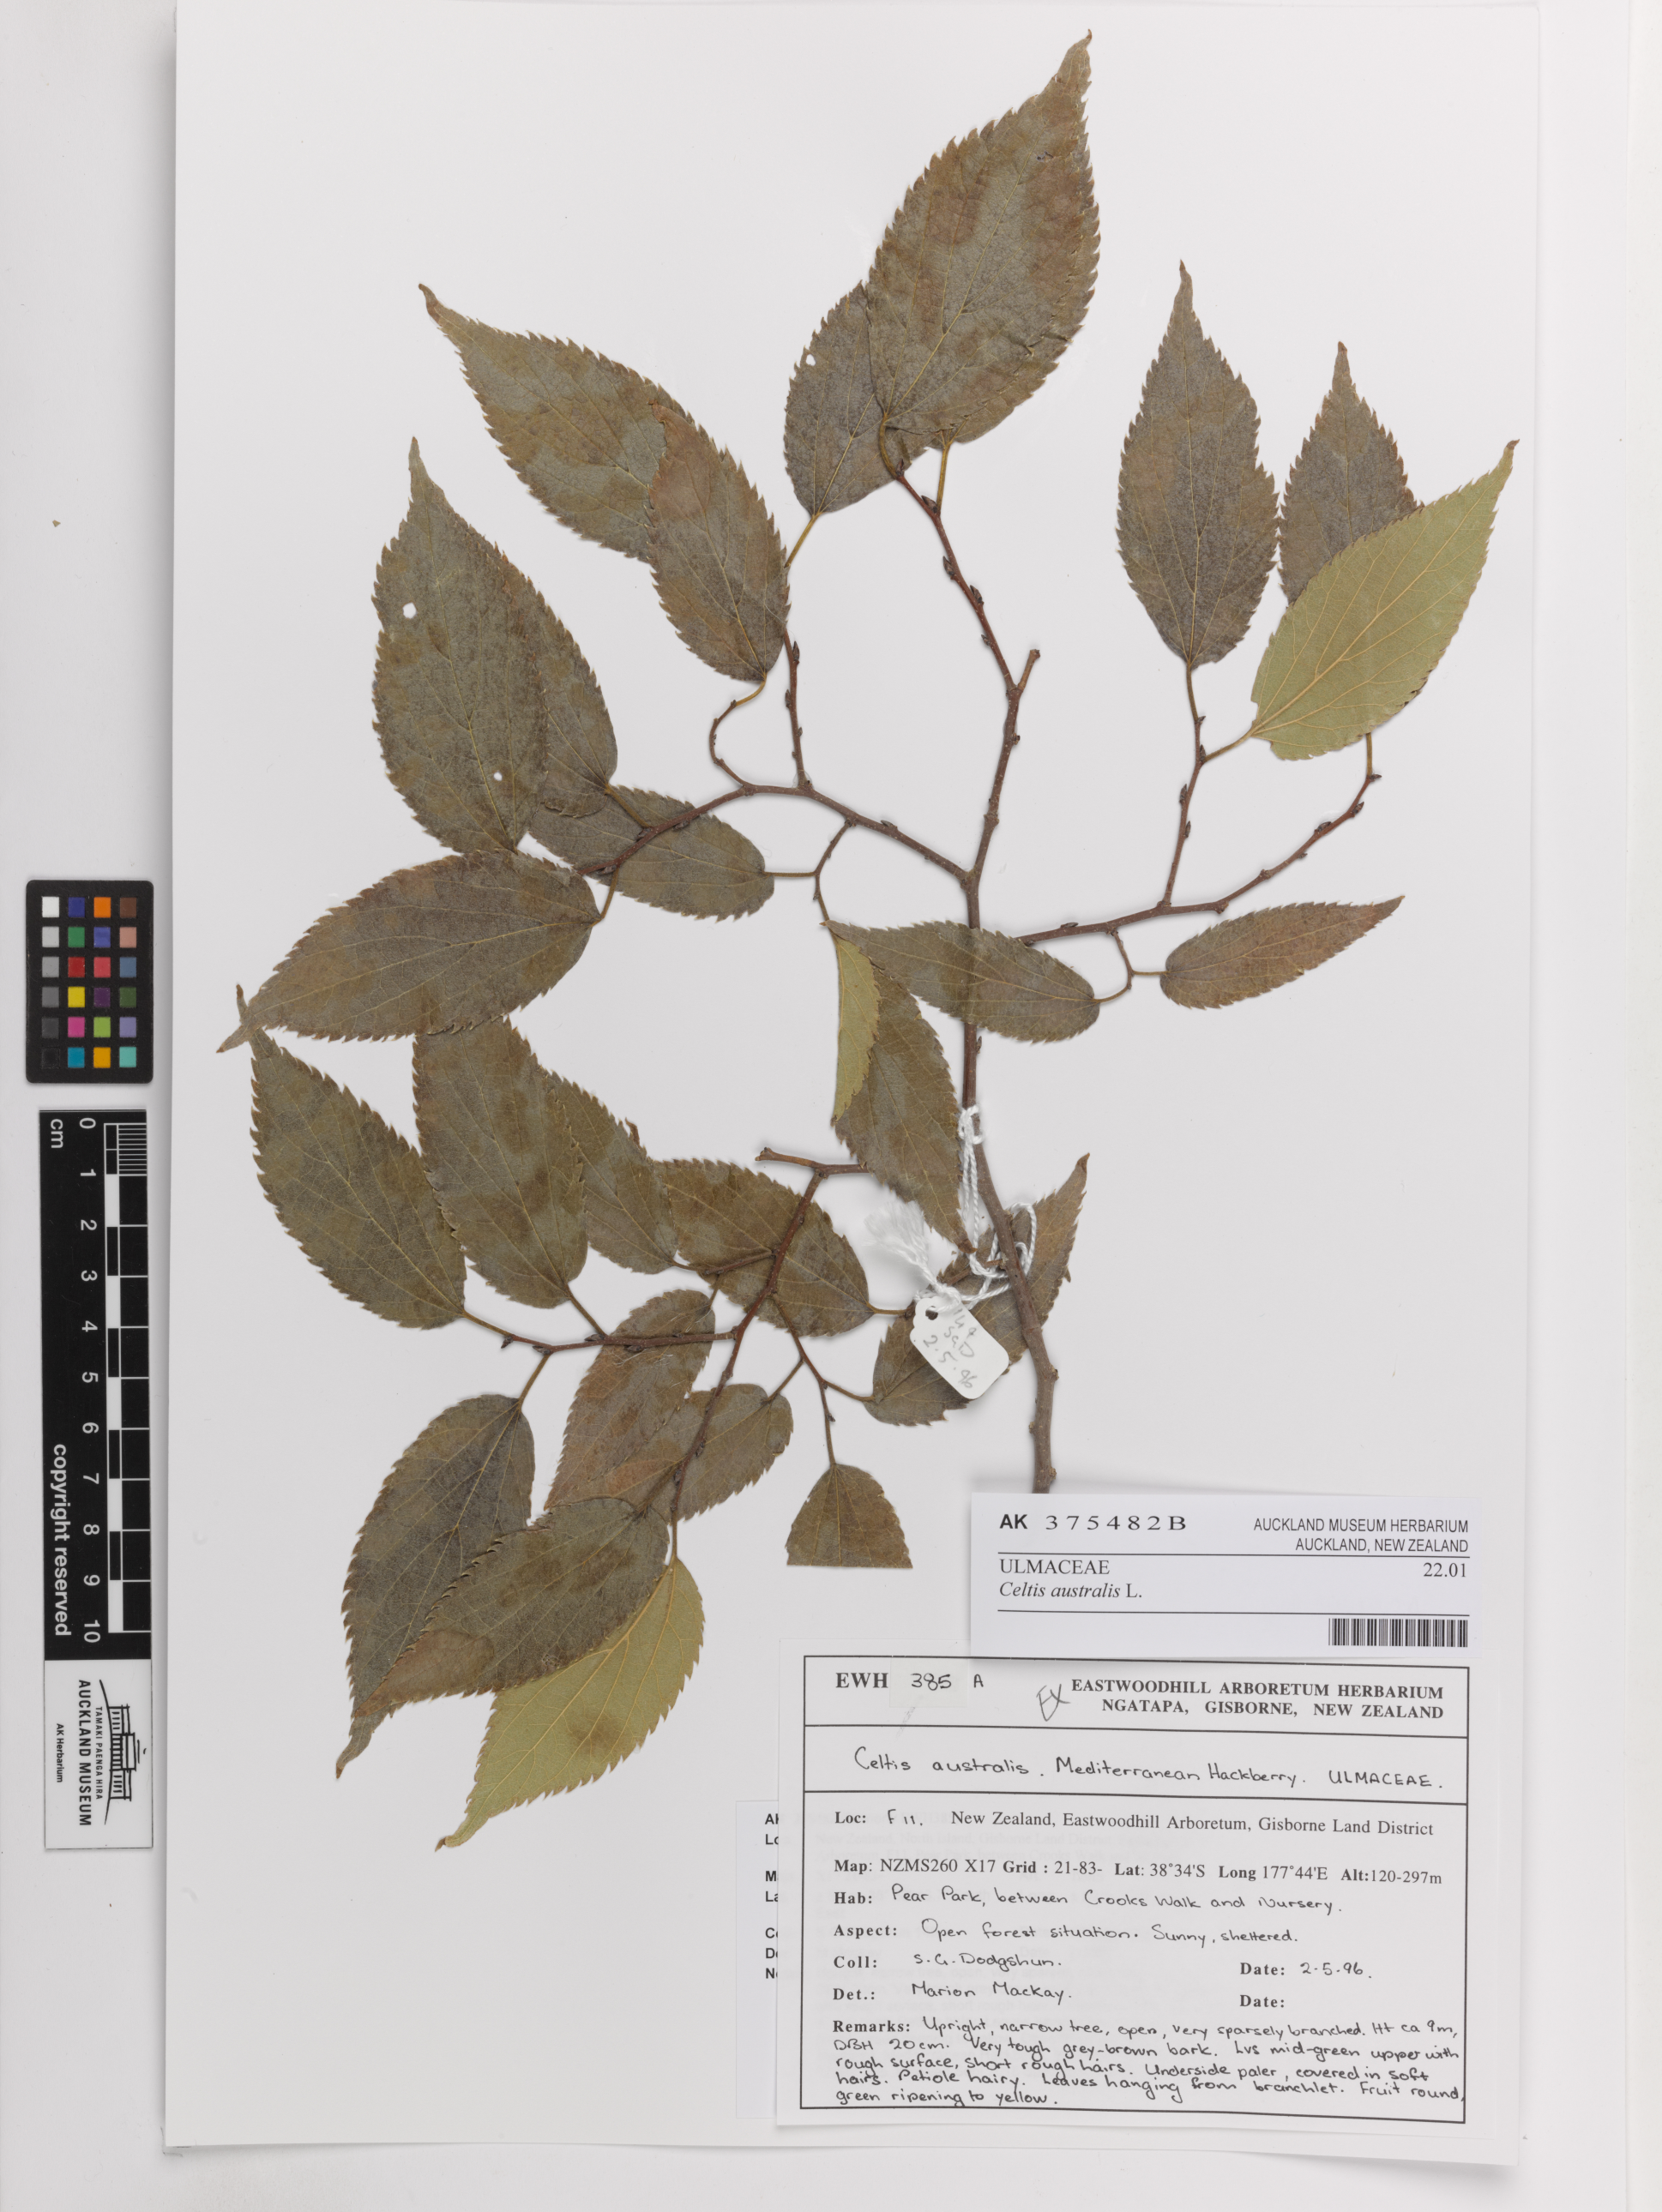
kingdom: Plantae
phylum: Tracheophyta
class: Magnoliopsida
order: Rosales
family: Cannabaceae
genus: Celtis
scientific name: Celtis australis
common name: European hackberry
